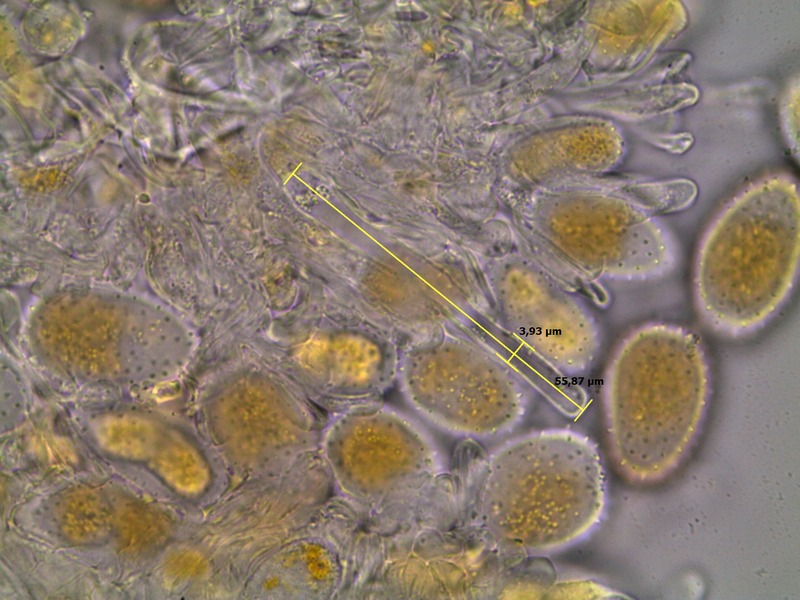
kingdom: Fungi
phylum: Basidiomycota
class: Pucciniomycetes
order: Pucciniales
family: Pucciniaceae
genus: Puccinia
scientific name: Puccinia graminis
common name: Black stem rust
